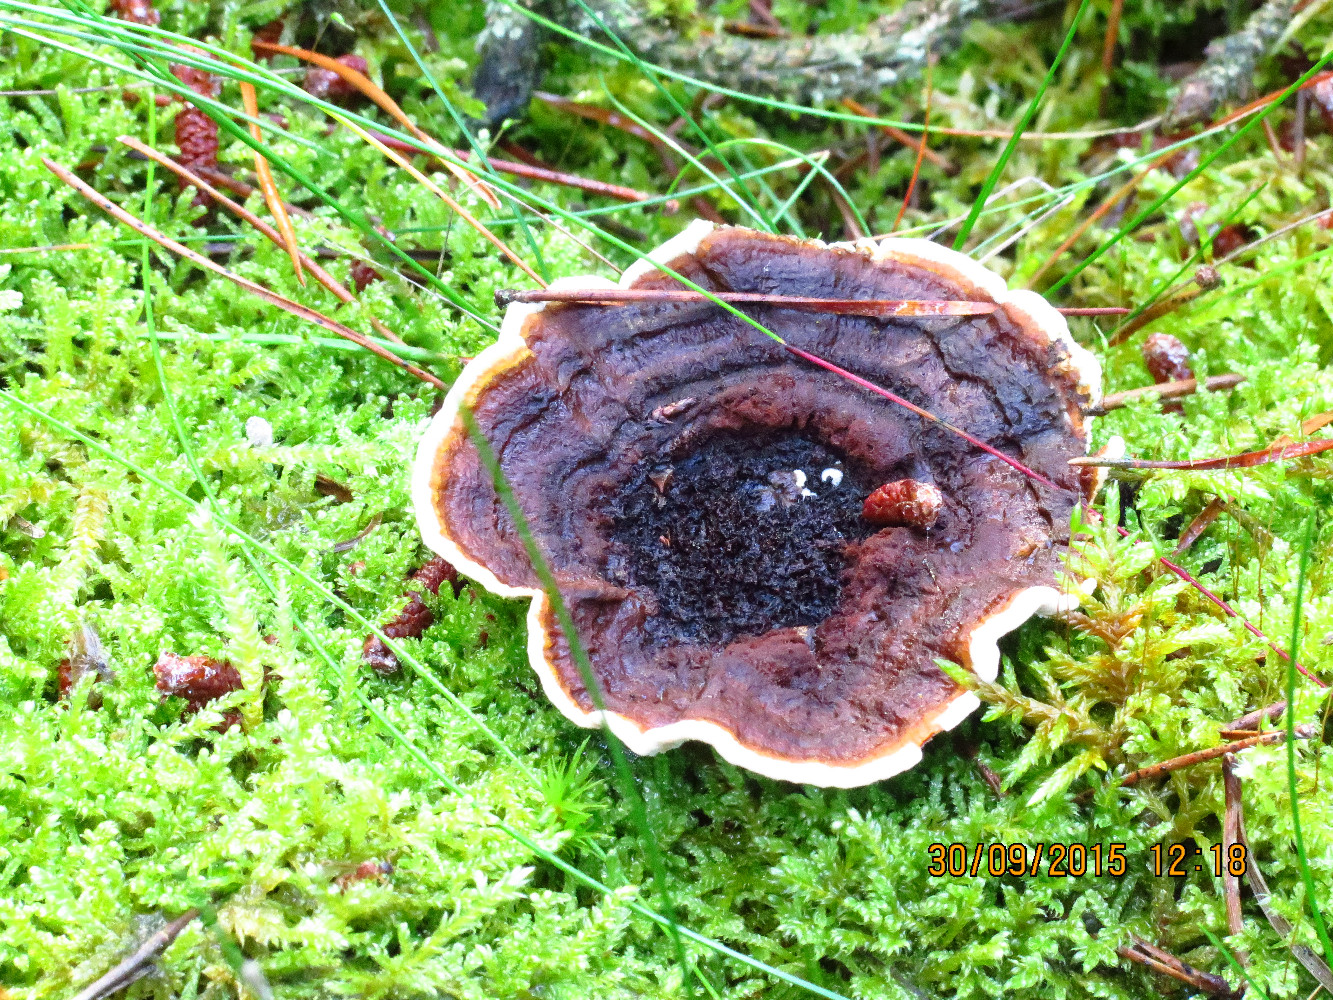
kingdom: Fungi
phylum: Basidiomycota
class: Agaricomycetes
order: Thelephorales
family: Bankeraceae
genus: Hydnellum
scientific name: Hydnellum concrescens
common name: bæltet korkpigsvamp
